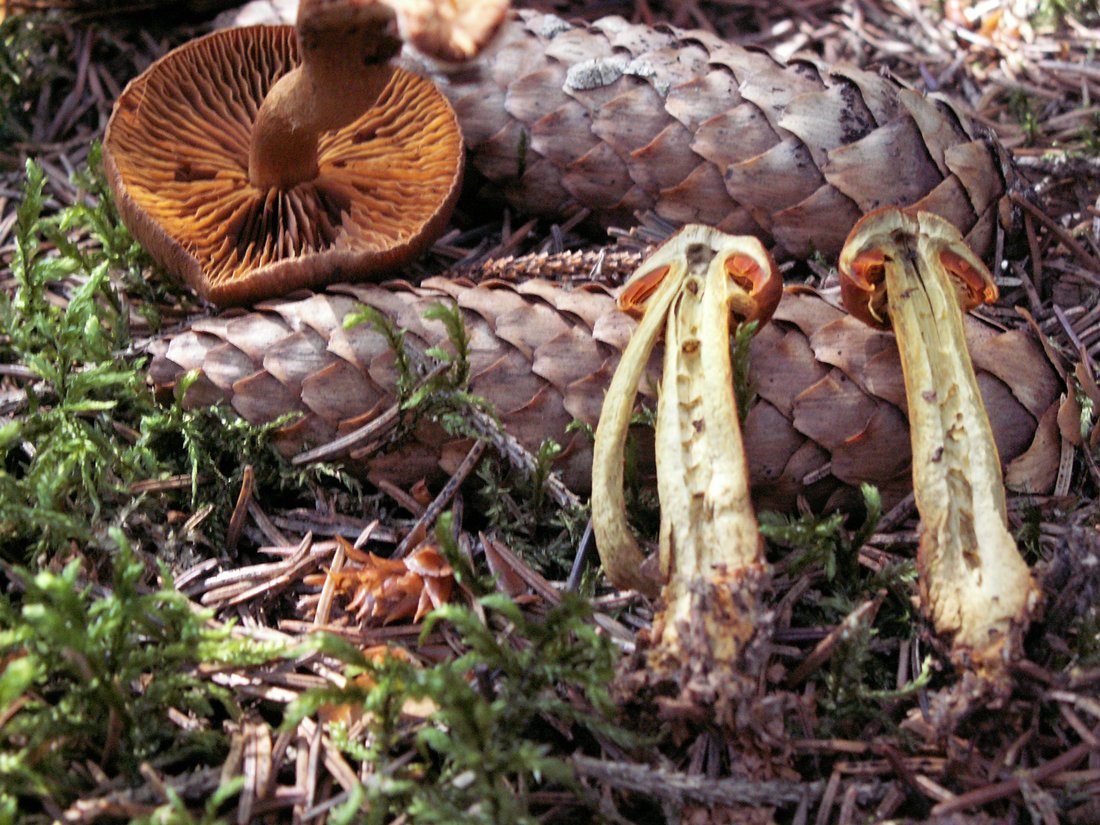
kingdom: Fungi
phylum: Basidiomycota
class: Agaricomycetes
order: Agaricales
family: Cortinariaceae
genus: Cortinarius
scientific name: Cortinarius malicorius
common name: grønkødet slørhat
